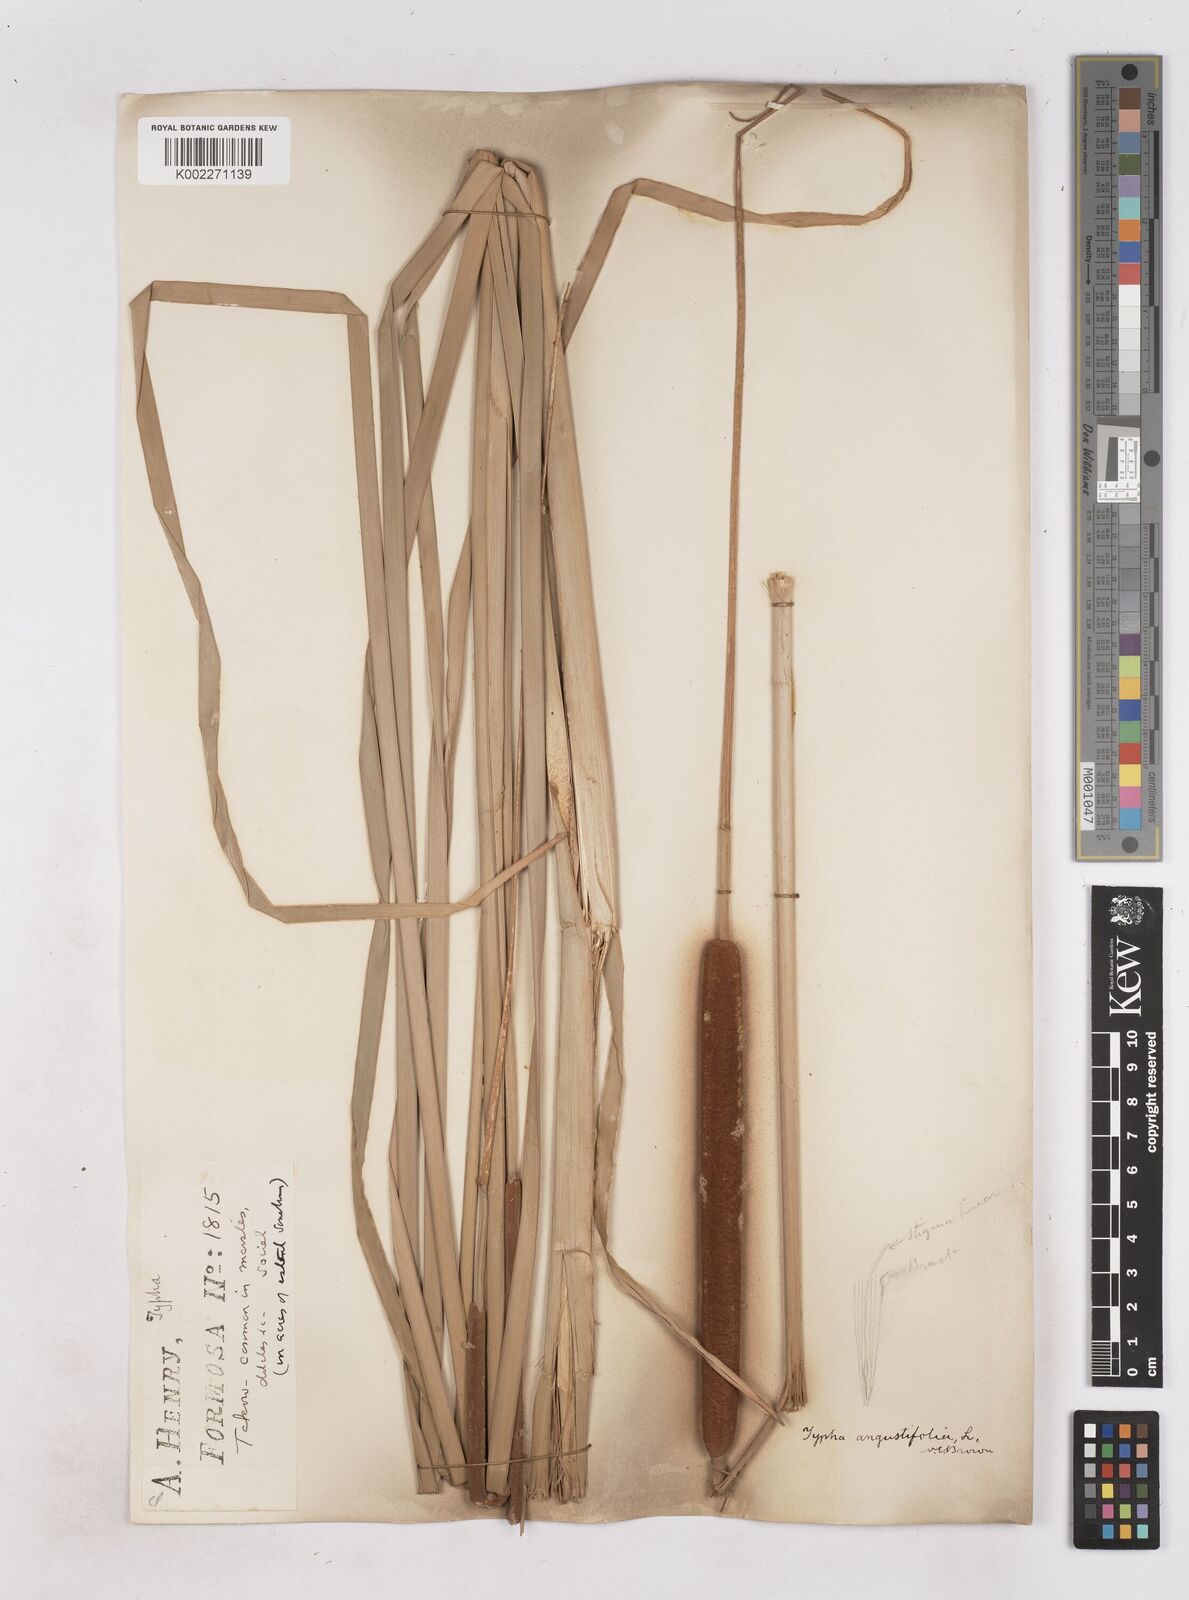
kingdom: Plantae
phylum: Tracheophyta
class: Liliopsida
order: Poales
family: Typhaceae
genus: Typha
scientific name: Typha angustifolia
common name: Lesser bulrush
